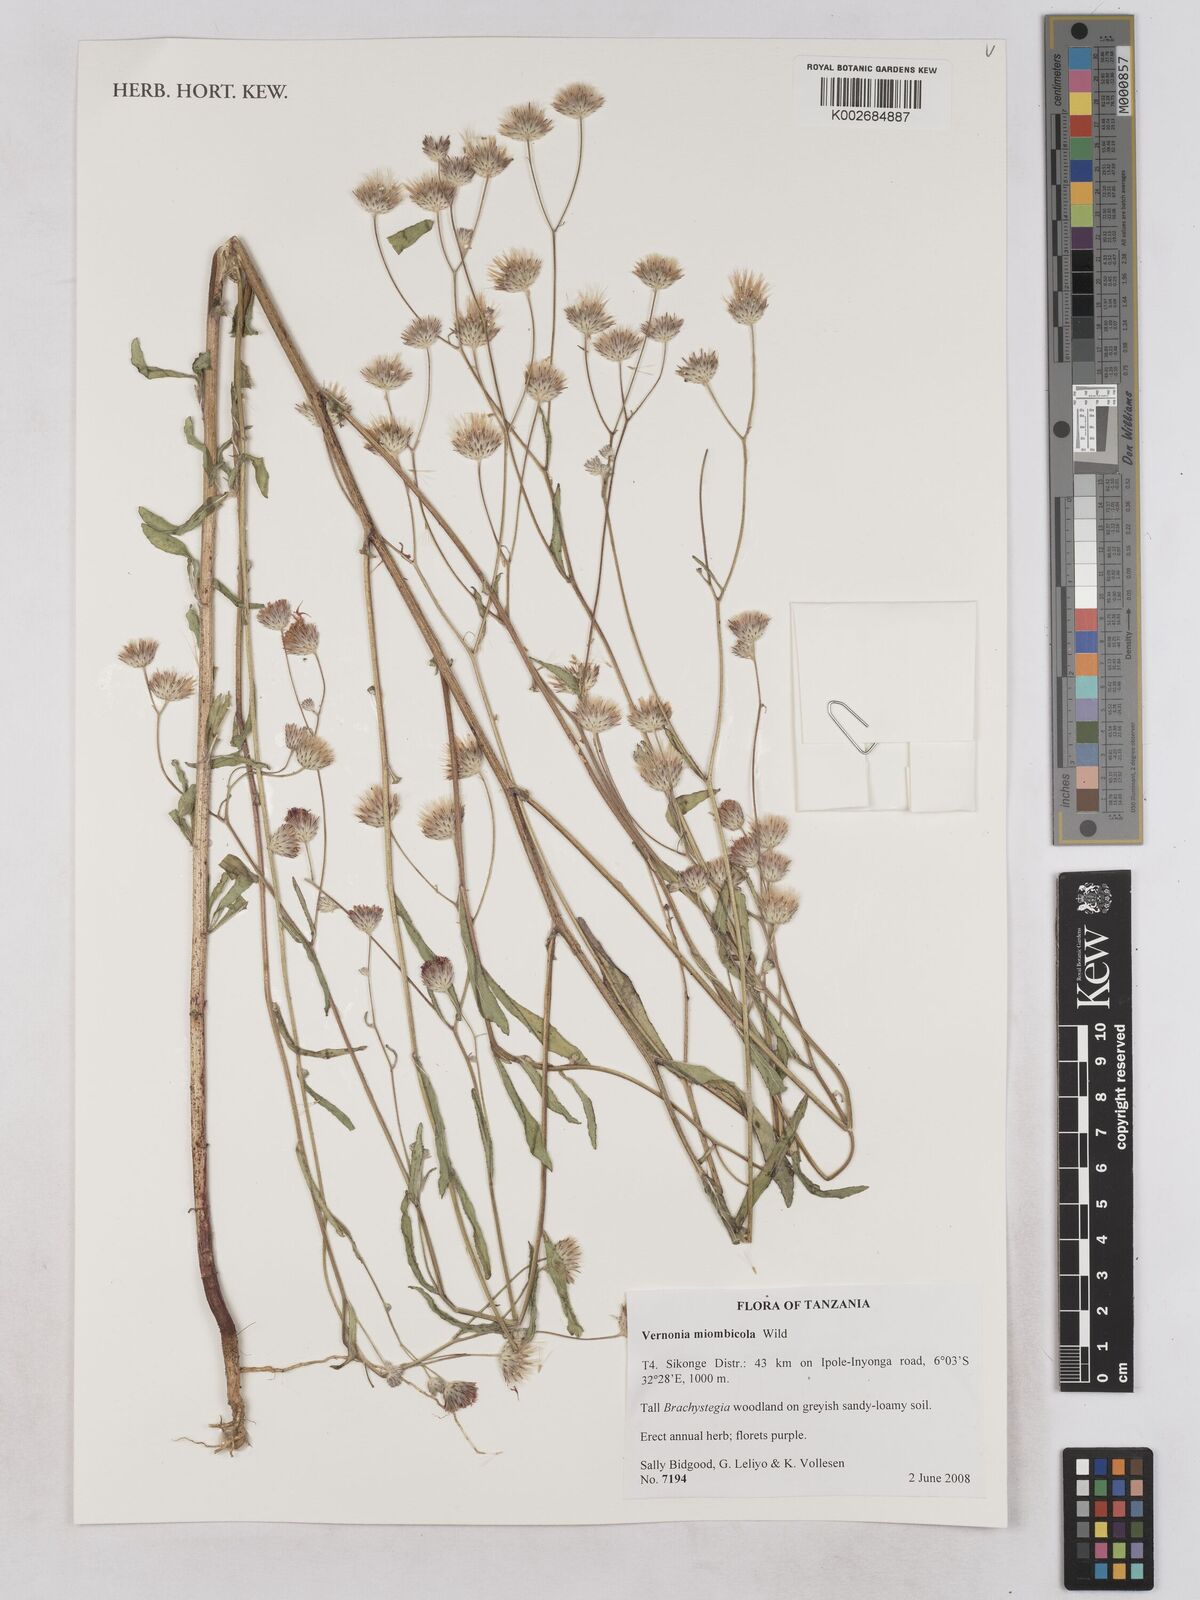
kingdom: Plantae
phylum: Tracheophyta
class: Magnoliopsida
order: Asterales
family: Asteraceae
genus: Vernonia
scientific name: Vernonia miombicola
